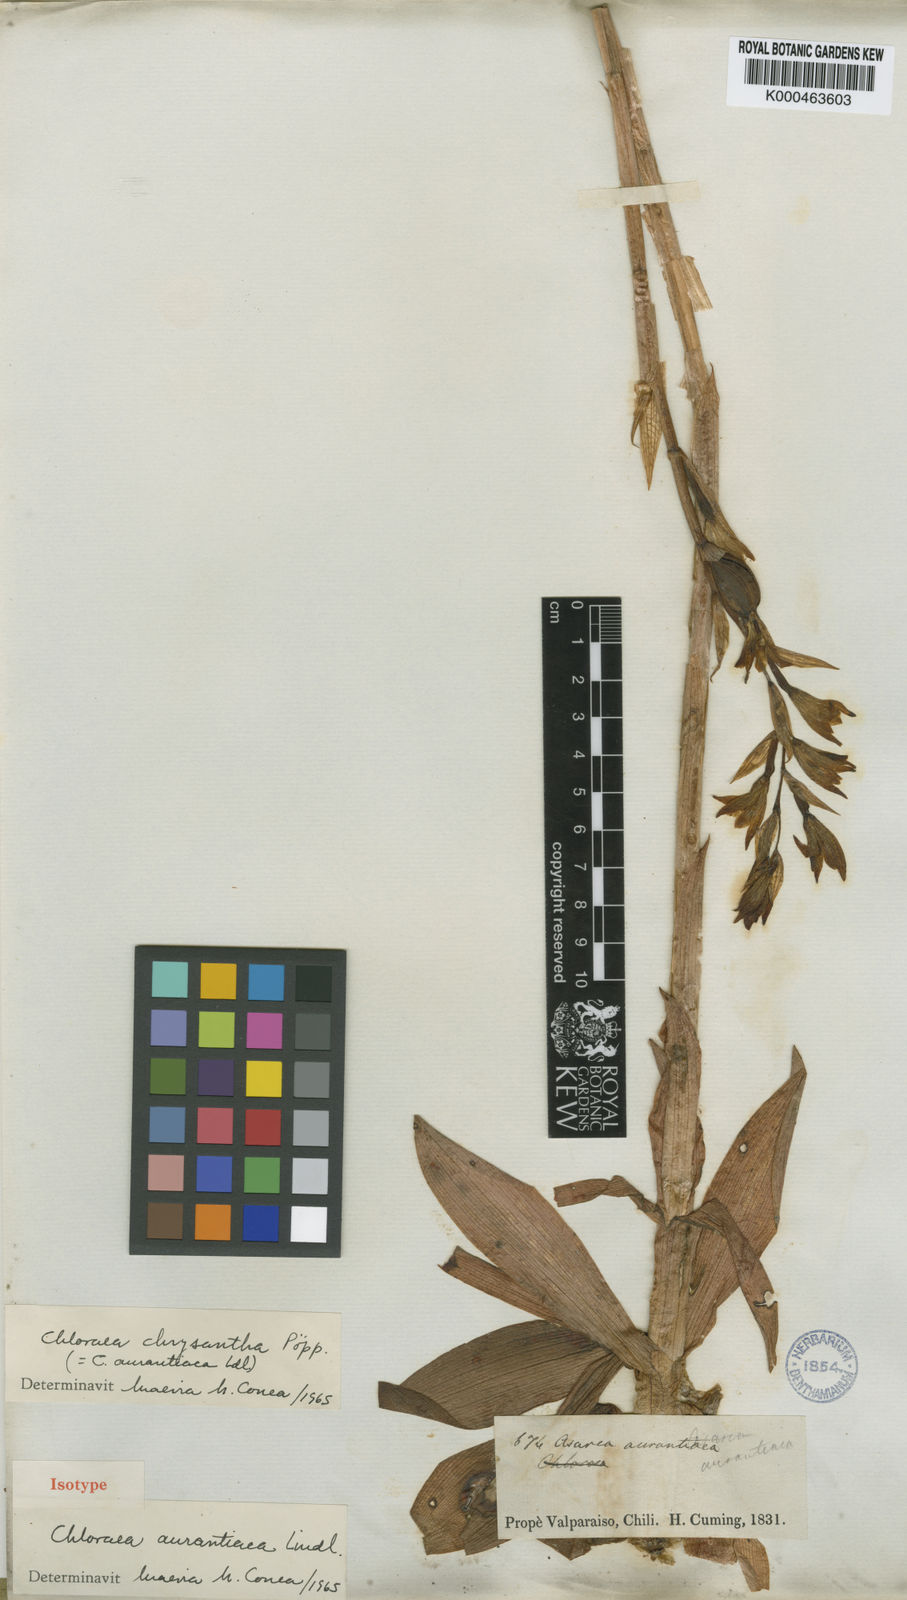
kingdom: Plantae
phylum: Tracheophyta
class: Liliopsida
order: Asparagales
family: Orchidaceae
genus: Chloraea
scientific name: Chloraea chrysantha
